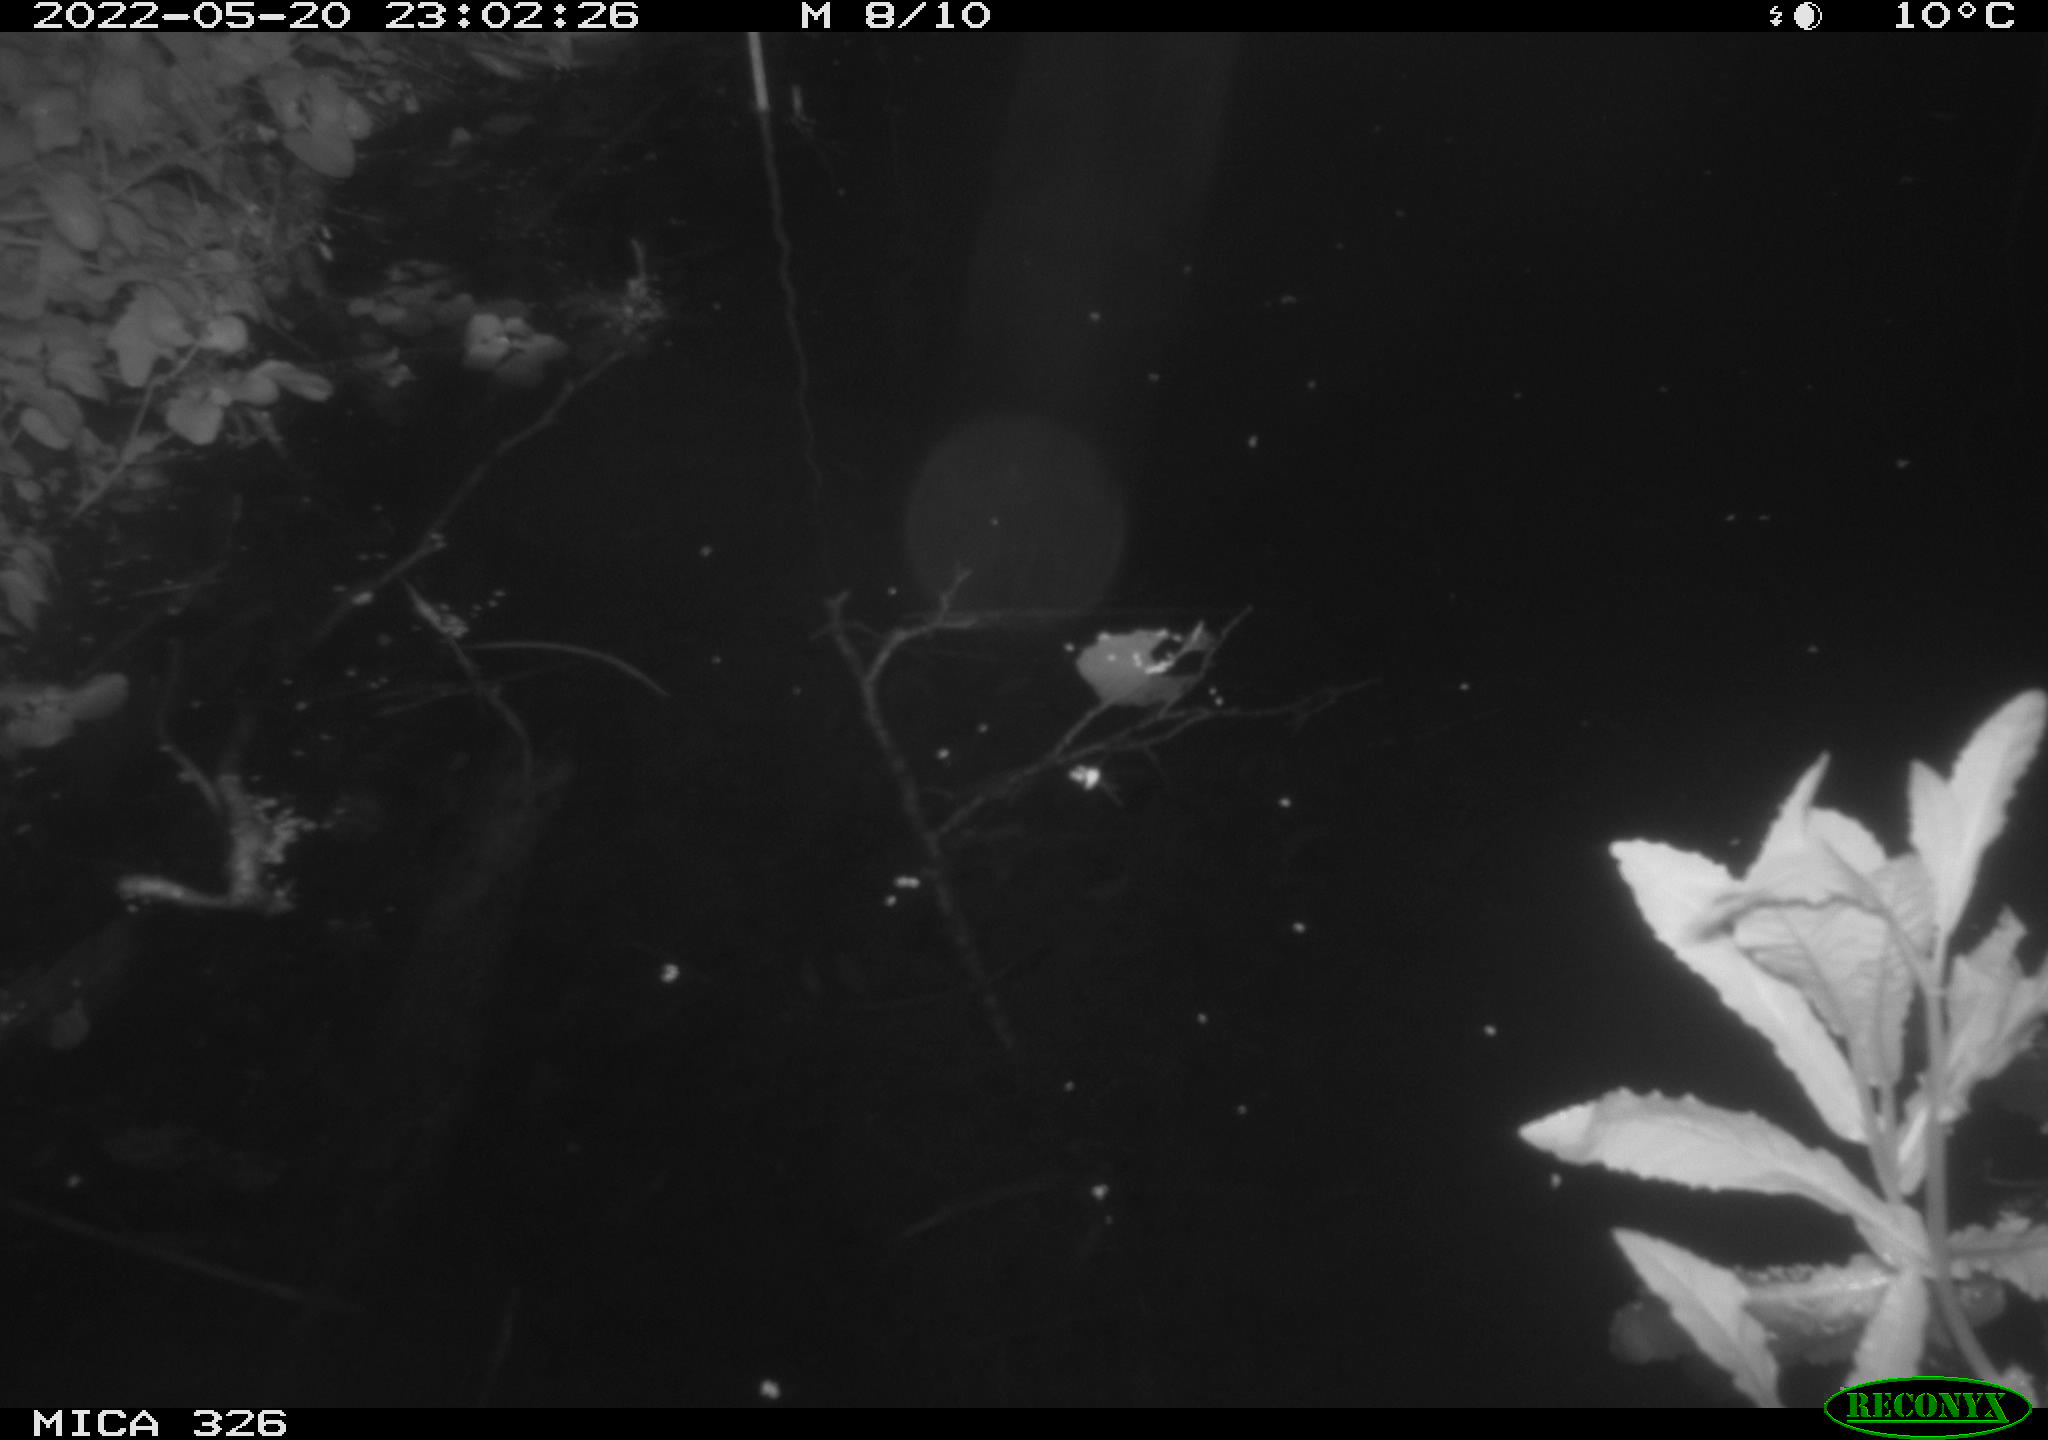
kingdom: Animalia
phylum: Chordata
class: Mammalia
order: Rodentia
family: Muridae
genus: Rattus
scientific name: Rattus norvegicus
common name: Brown rat
